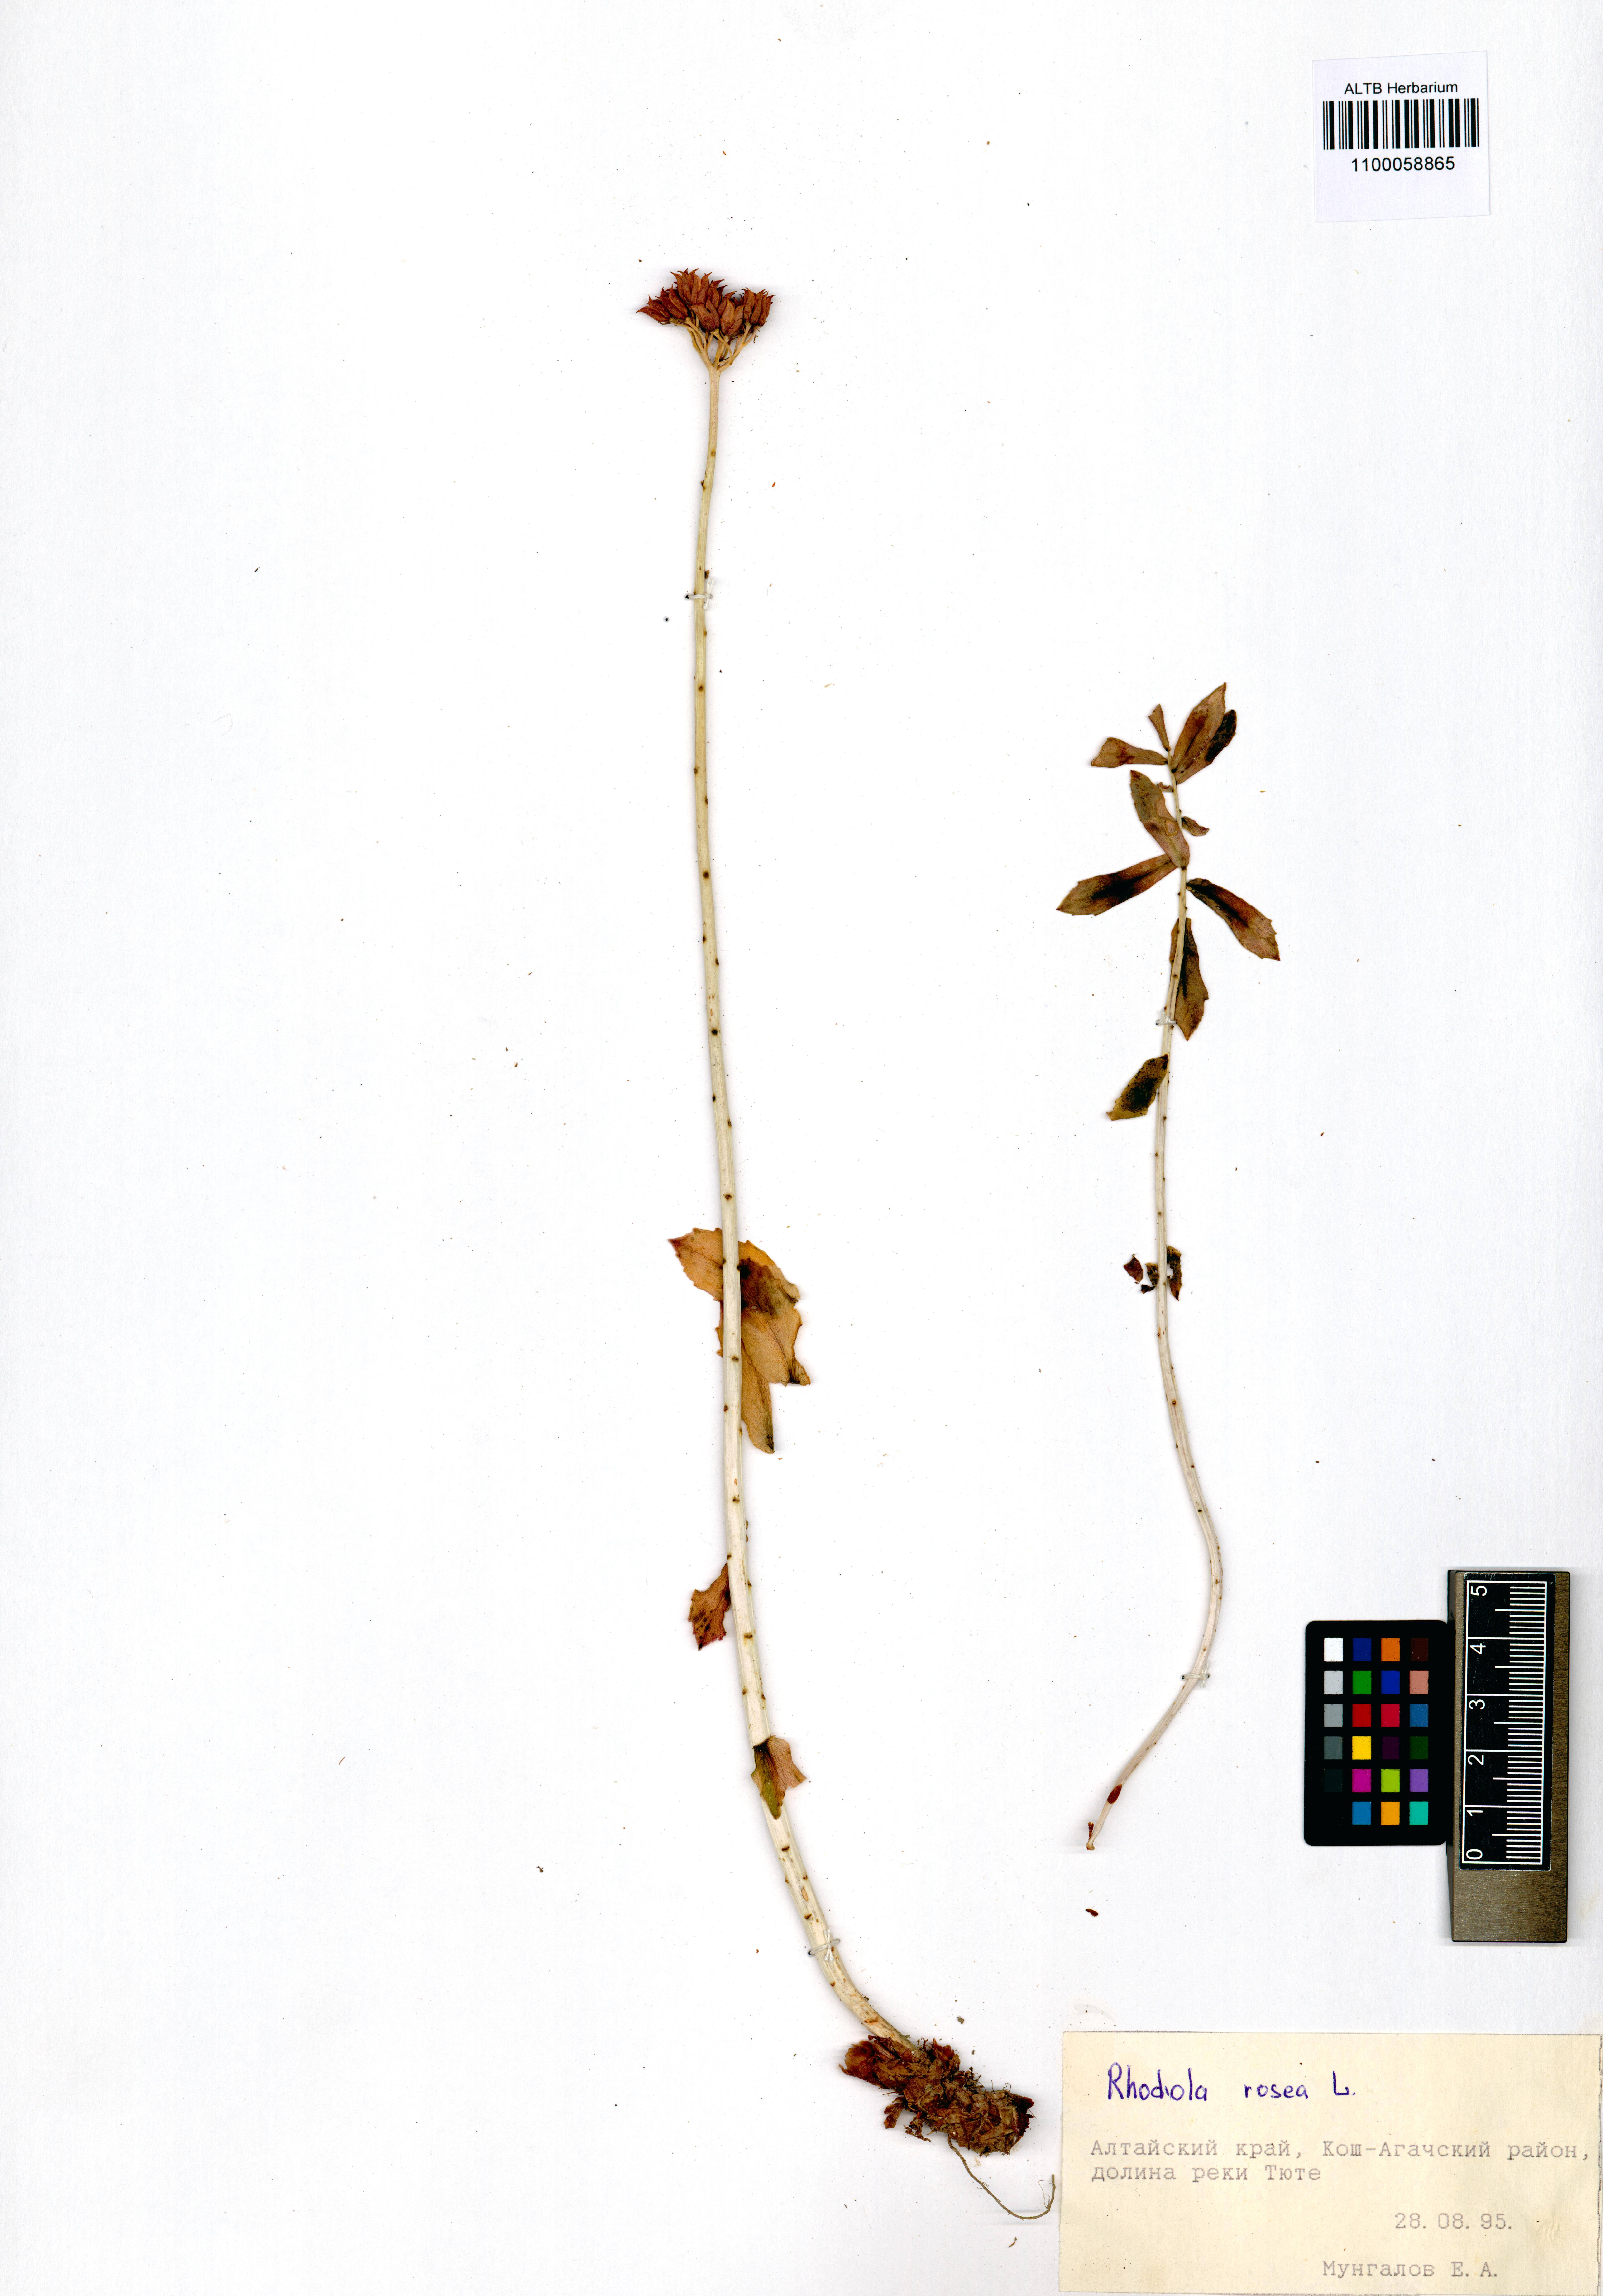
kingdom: Plantae
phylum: Tracheophyta
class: Magnoliopsida
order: Saxifragales
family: Crassulaceae
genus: Rhodiola
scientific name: Rhodiola rosea
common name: Roseroot
